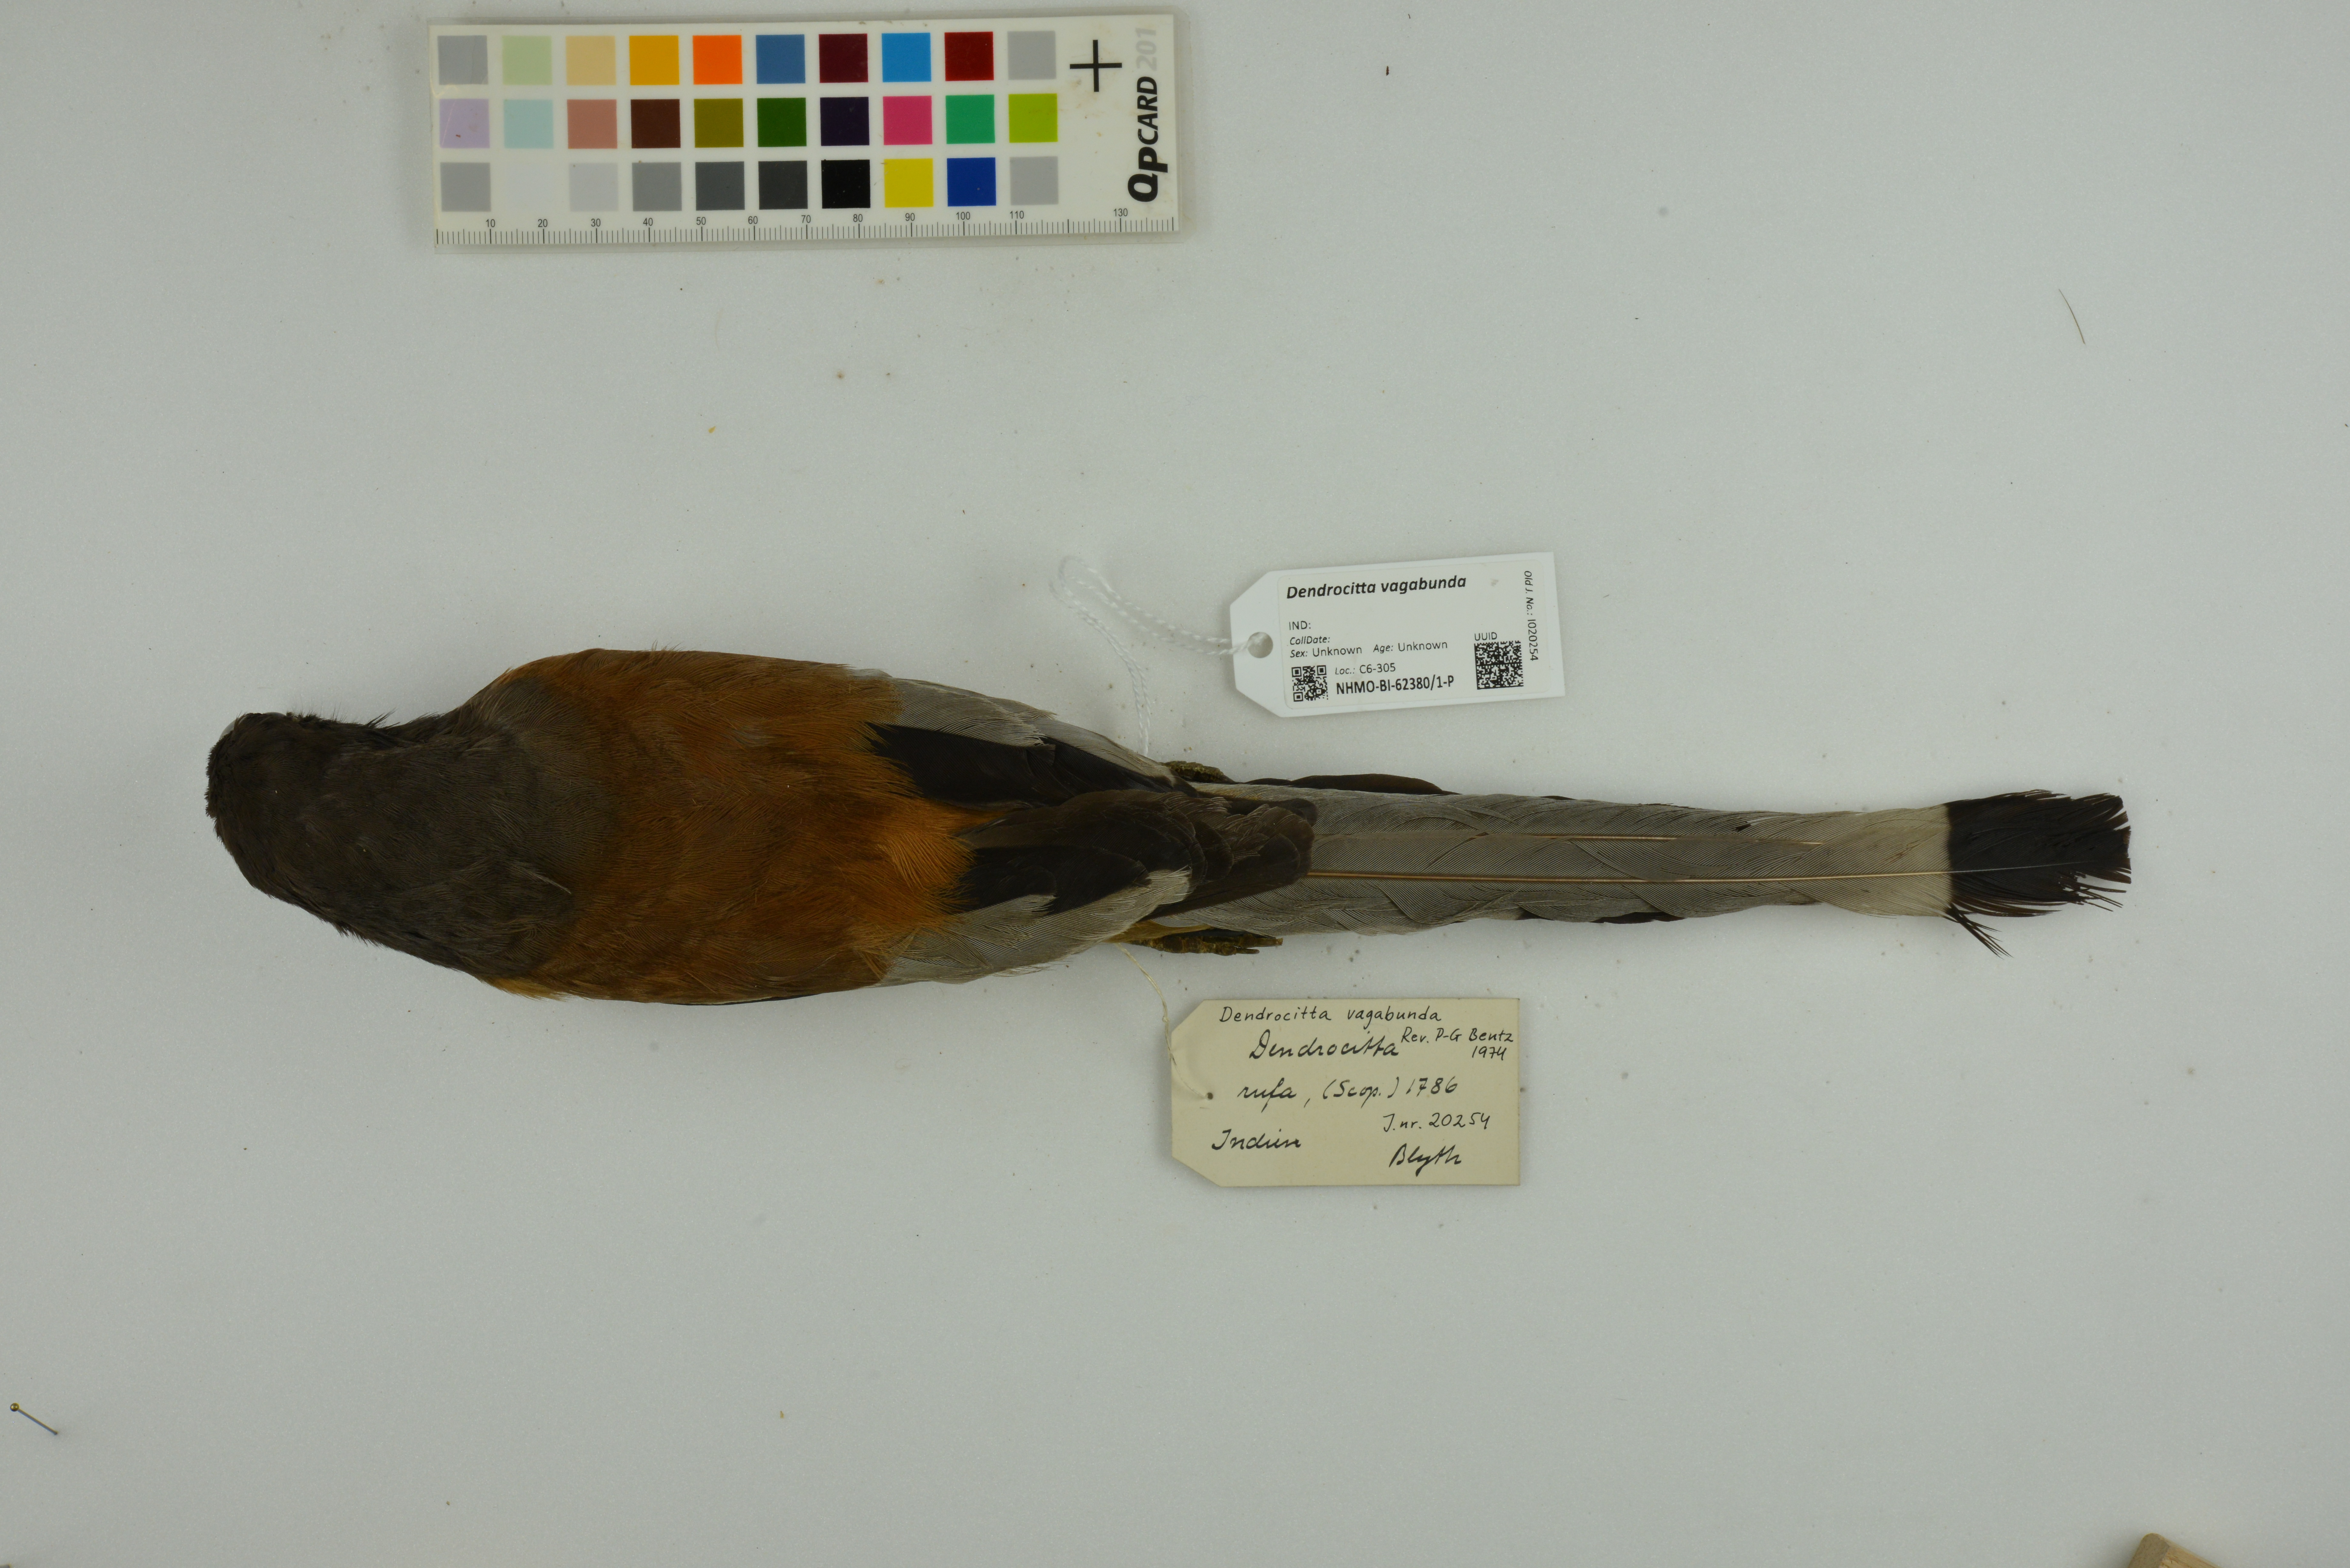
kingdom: Animalia
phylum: Chordata
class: Aves
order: Passeriformes
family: Corvidae
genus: Dendrocitta
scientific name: Dendrocitta vagabunda
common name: Rufous treepie
